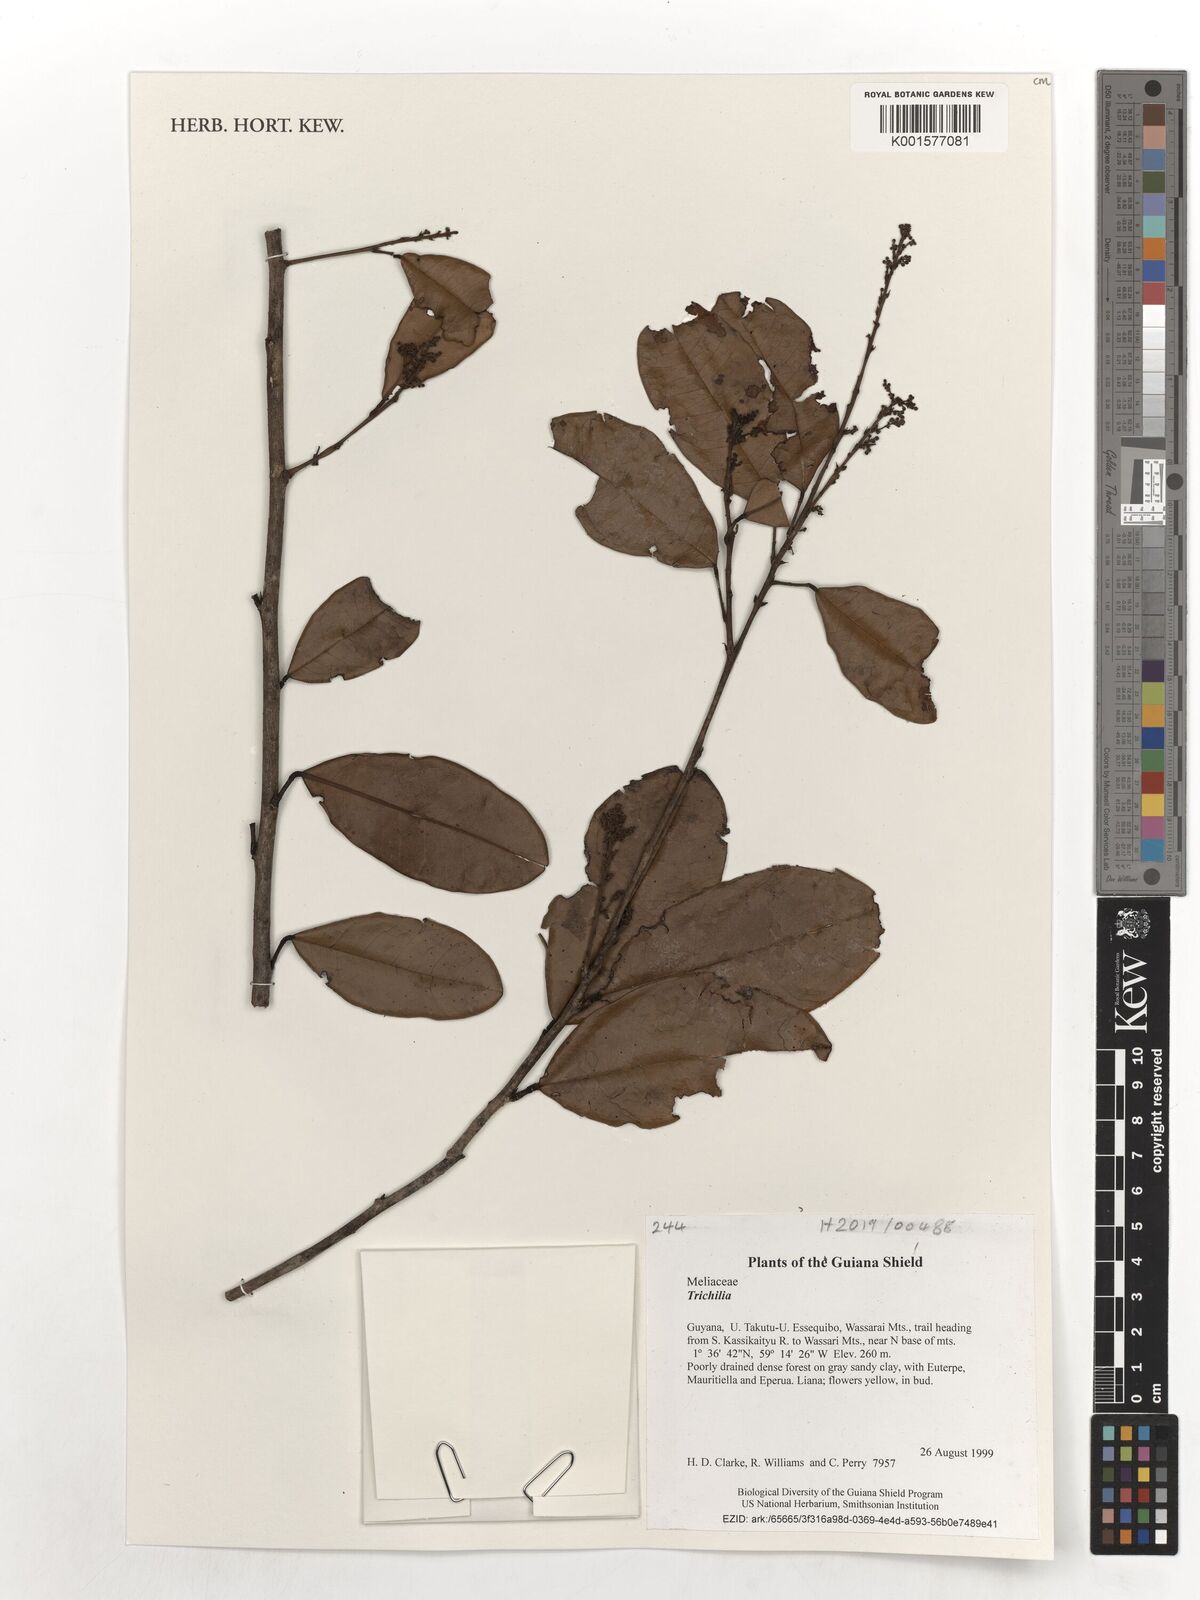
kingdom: Plantae
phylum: Tracheophyta
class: Magnoliopsida
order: Sapindales
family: Meliaceae
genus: Trichilia
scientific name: Trichilia
